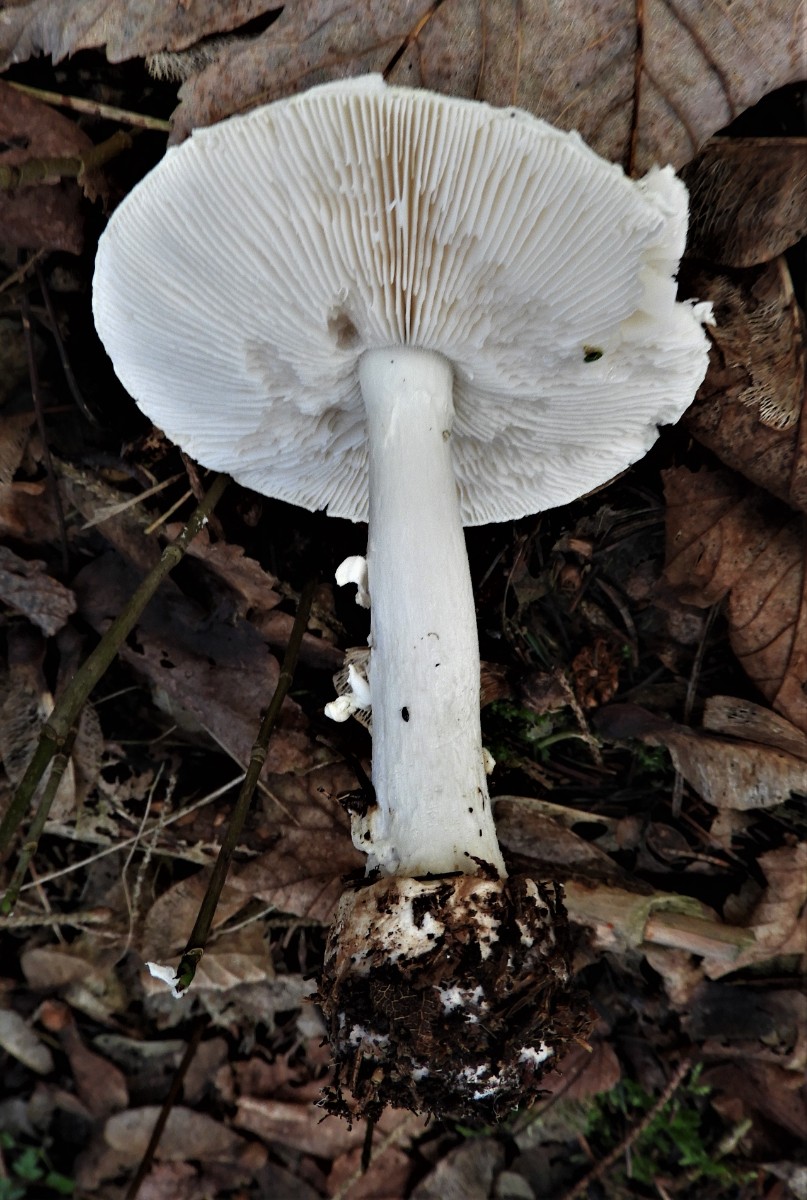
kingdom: Fungi
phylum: Basidiomycota
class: Agaricomycetes
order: Agaricales
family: Amanitaceae
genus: Amanita
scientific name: Amanita citrina
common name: kugleknoldet fluesvamp
